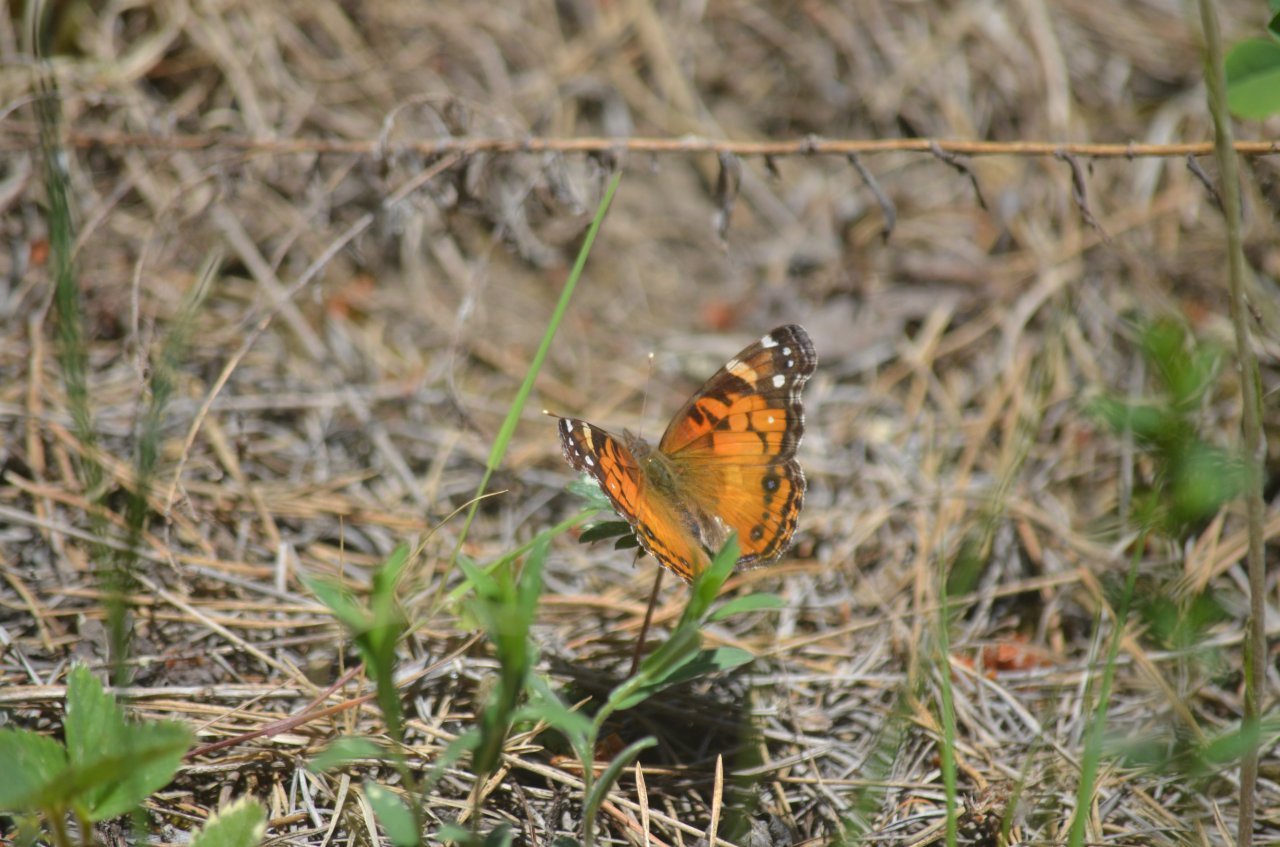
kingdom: Animalia
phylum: Arthropoda
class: Insecta
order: Lepidoptera
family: Nymphalidae
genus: Vanessa
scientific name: Vanessa virginiensis
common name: American Lady
